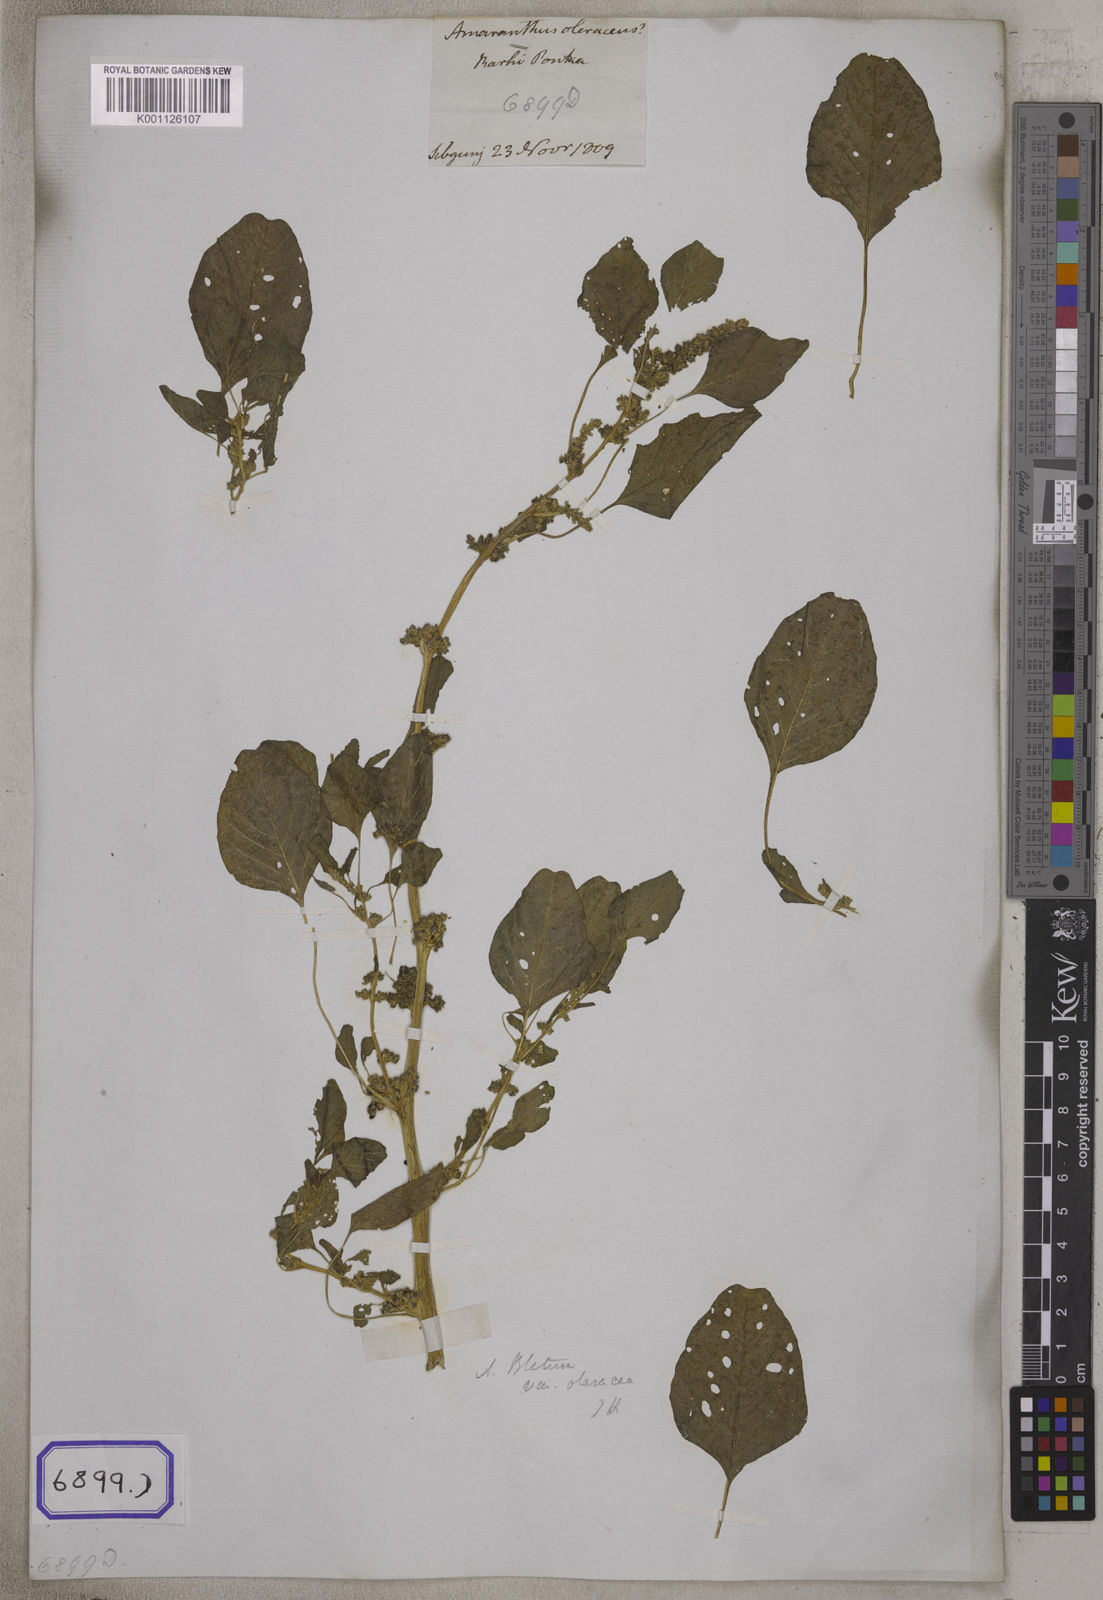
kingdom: Plantae
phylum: Tracheophyta
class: Magnoliopsida
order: Caryophyllales
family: Amaranthaceae
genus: Amaranthus
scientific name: Amaranthus
